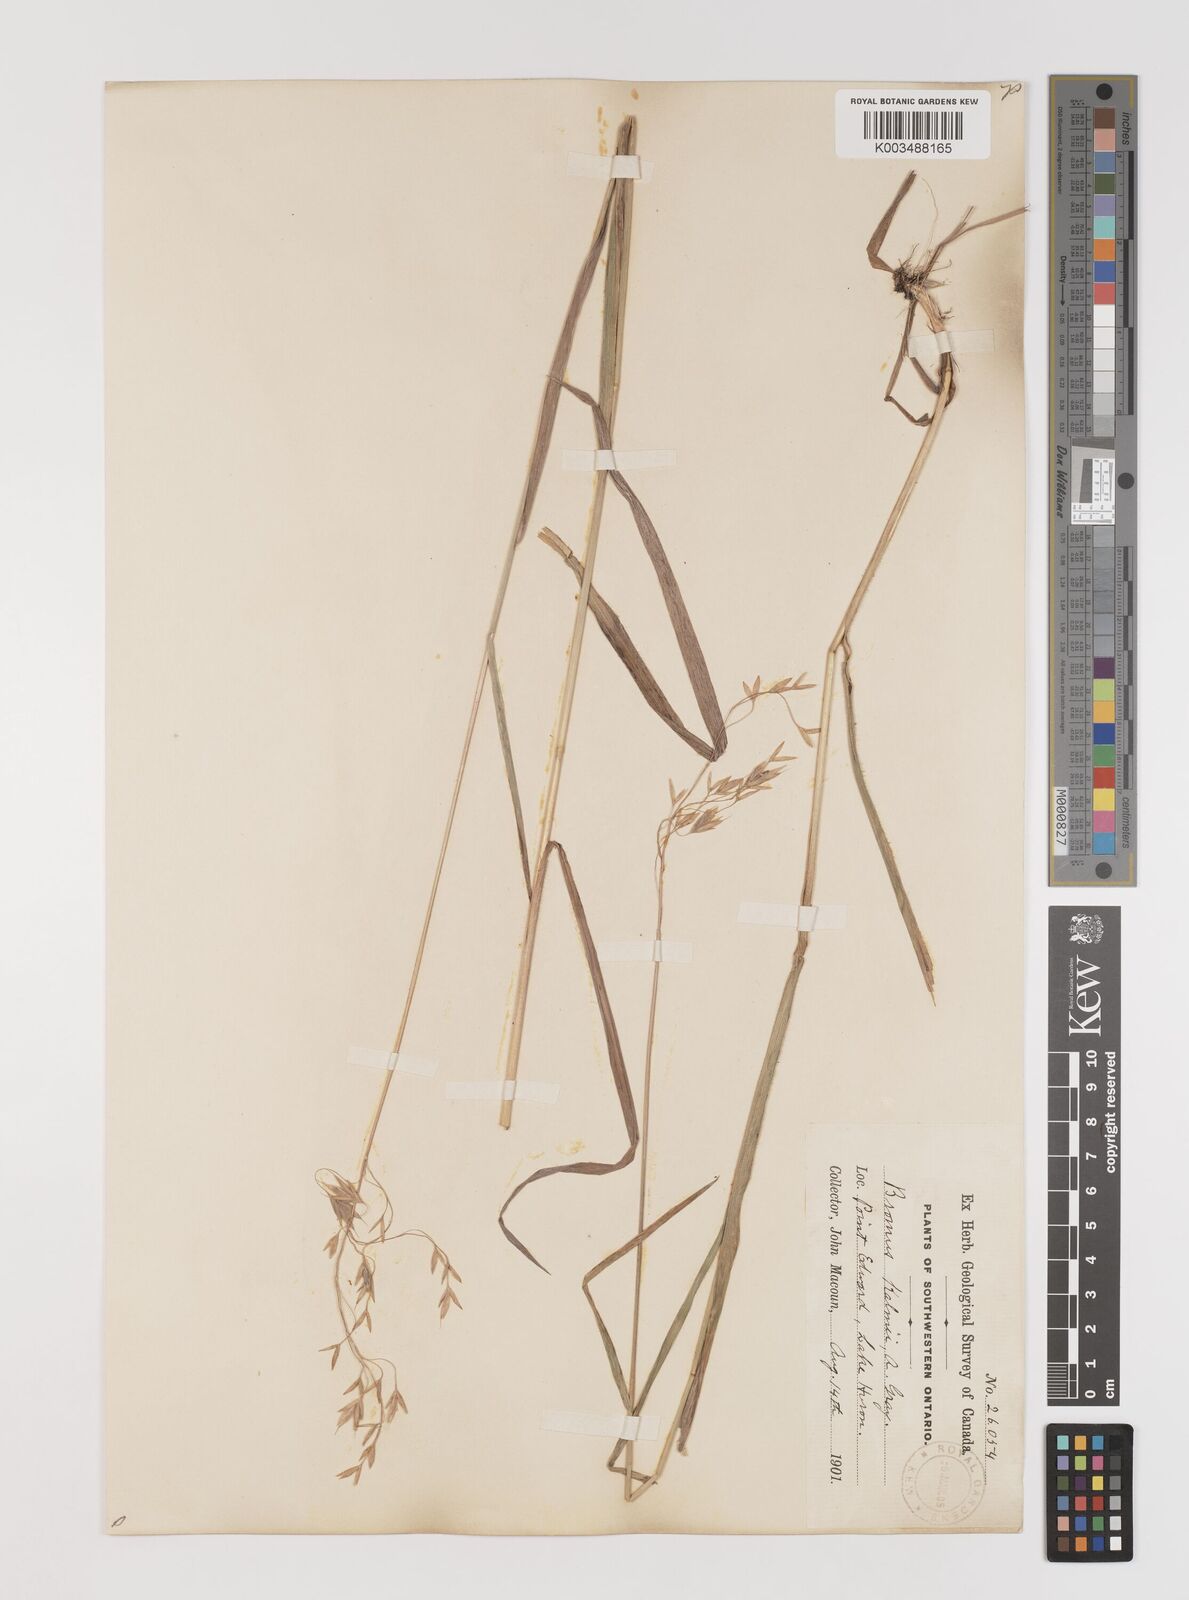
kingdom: Plantae
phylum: Tracheophyta
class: Liliopsida
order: Poales
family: Poaceae
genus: Bromus
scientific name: Bromus kalmii
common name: Kalm brome
